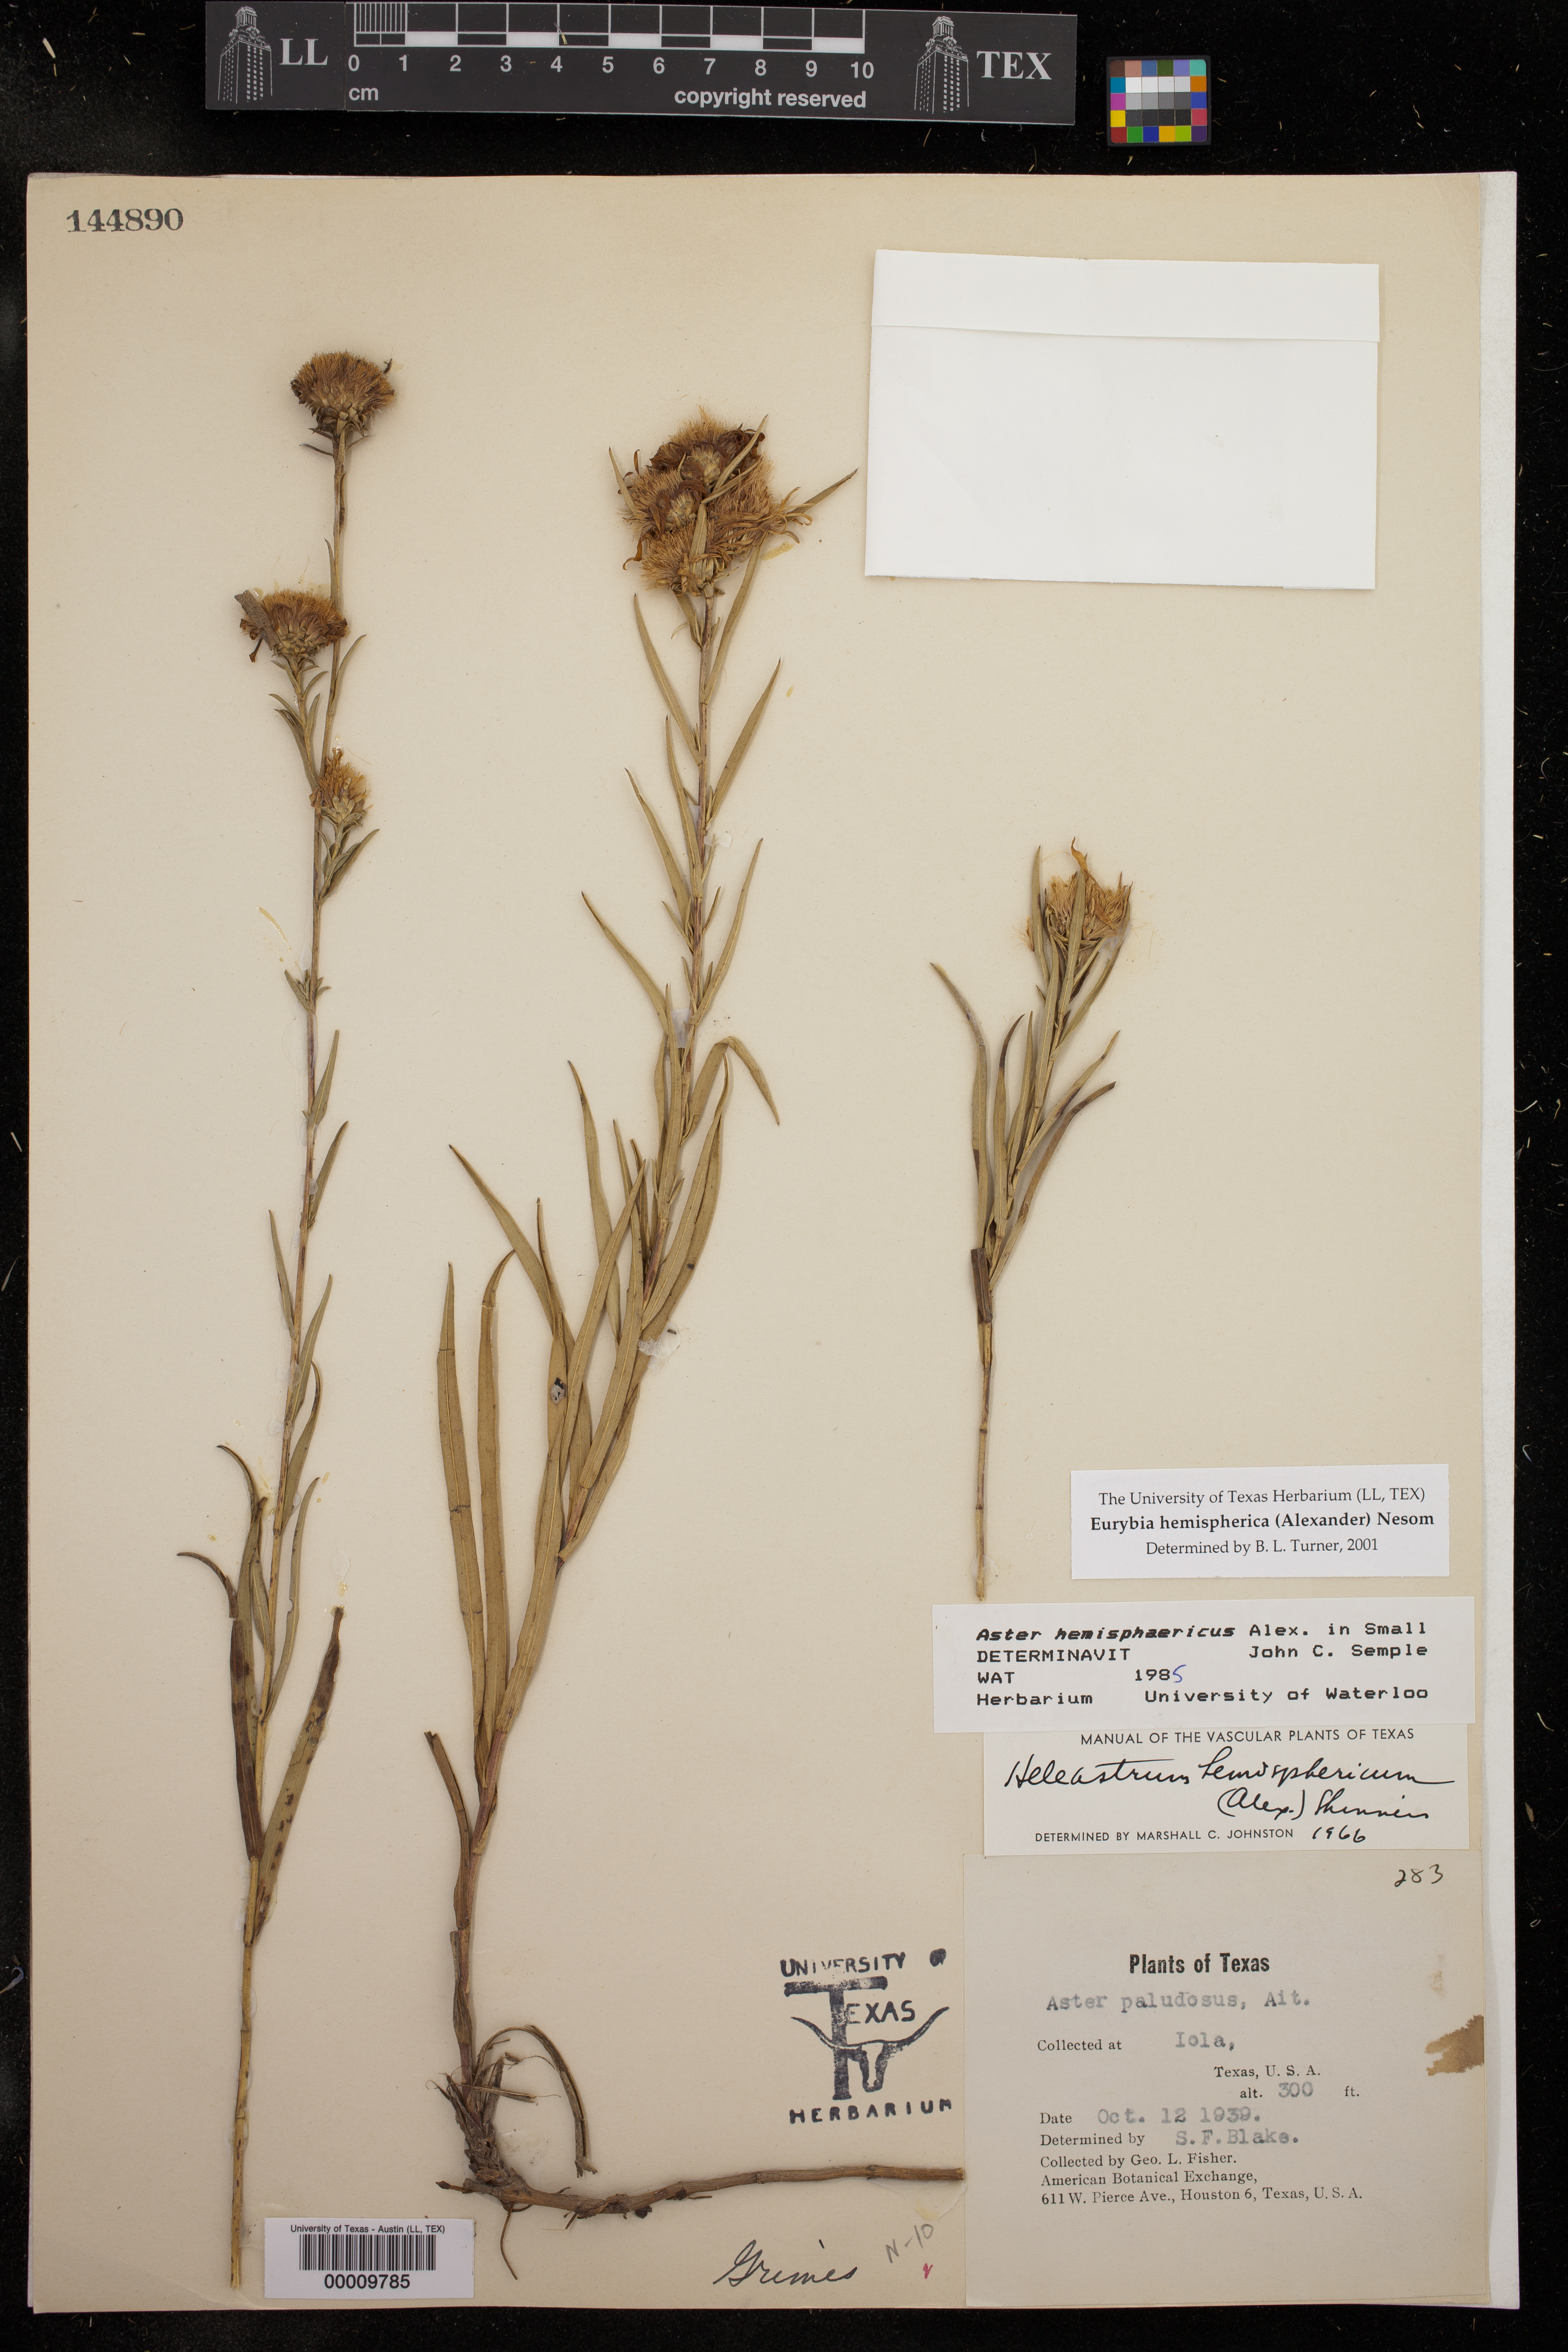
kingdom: Plantae
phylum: Tracheophyta
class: Magnoliopsida
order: Asterales
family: Asteraceae
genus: Eurybia
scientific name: Eurybia hemispherica
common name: Showy aster
